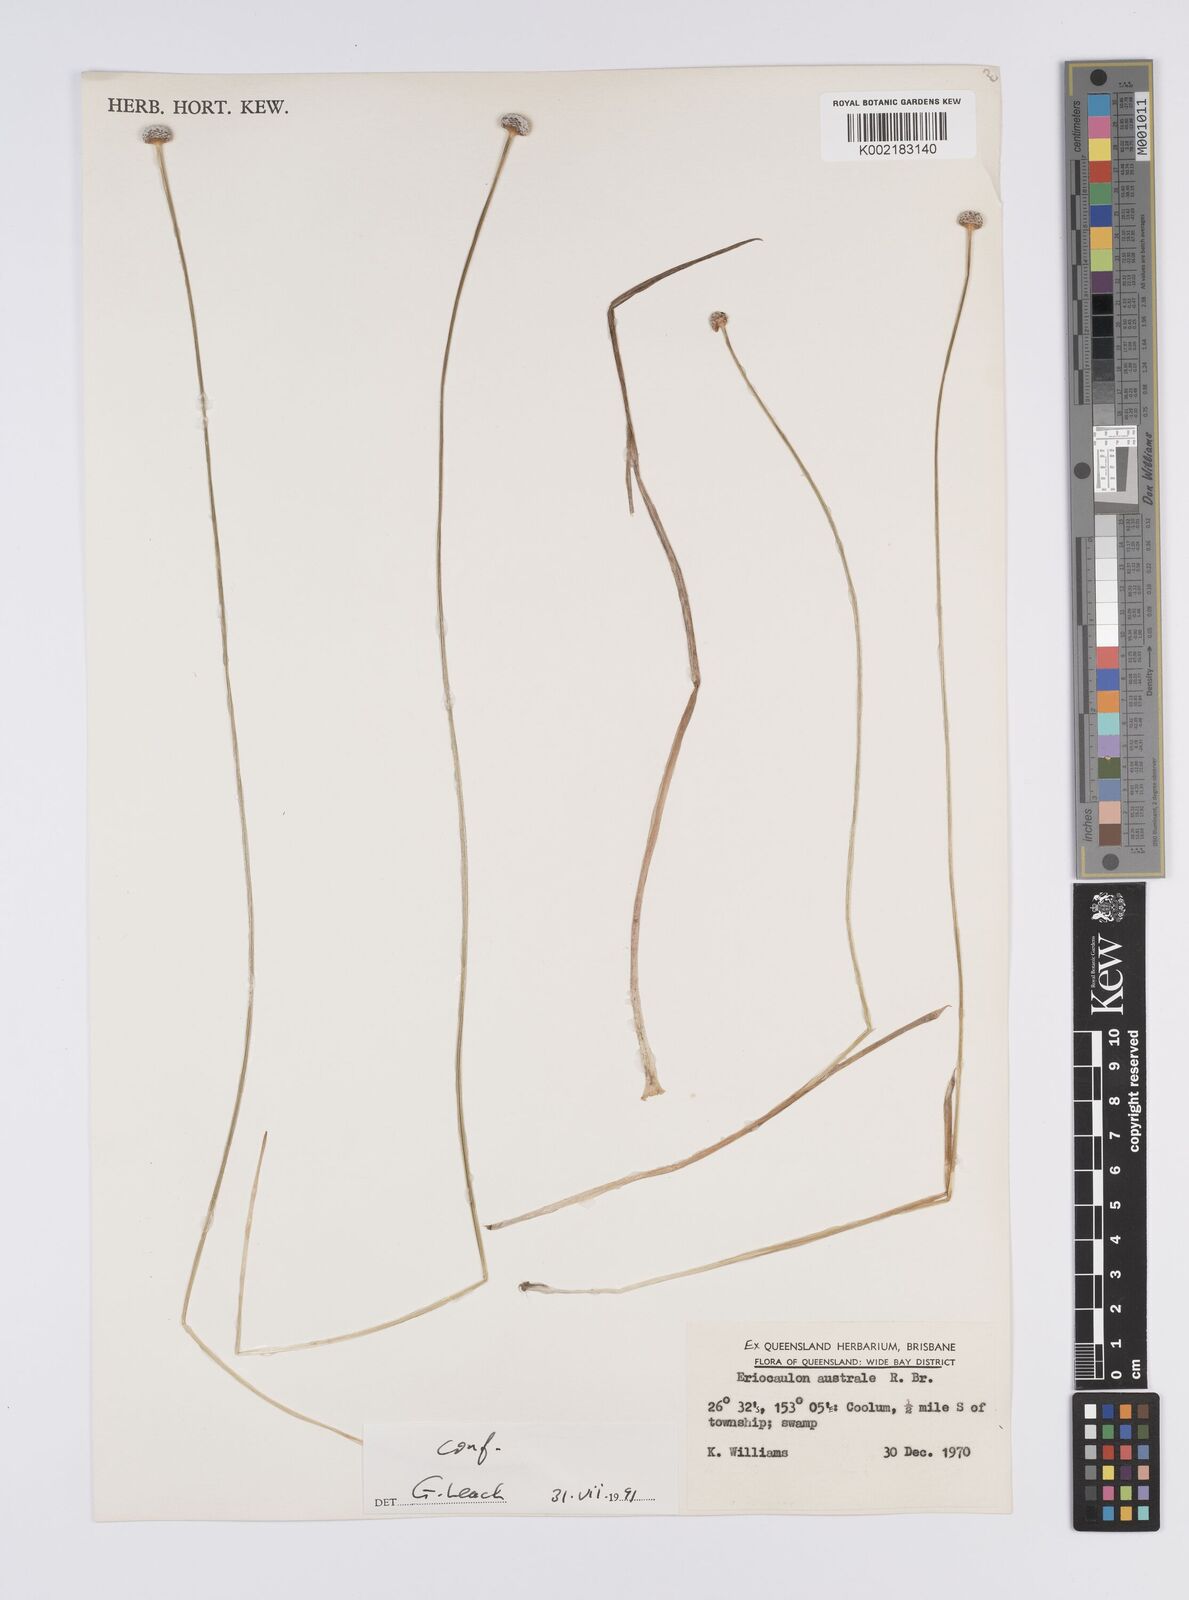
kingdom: Plantae
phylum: Tracheophyta
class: Liliopsida
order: Poales
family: Eriocaulaceae
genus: Eriocaulon
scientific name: Eriocaulon australe
